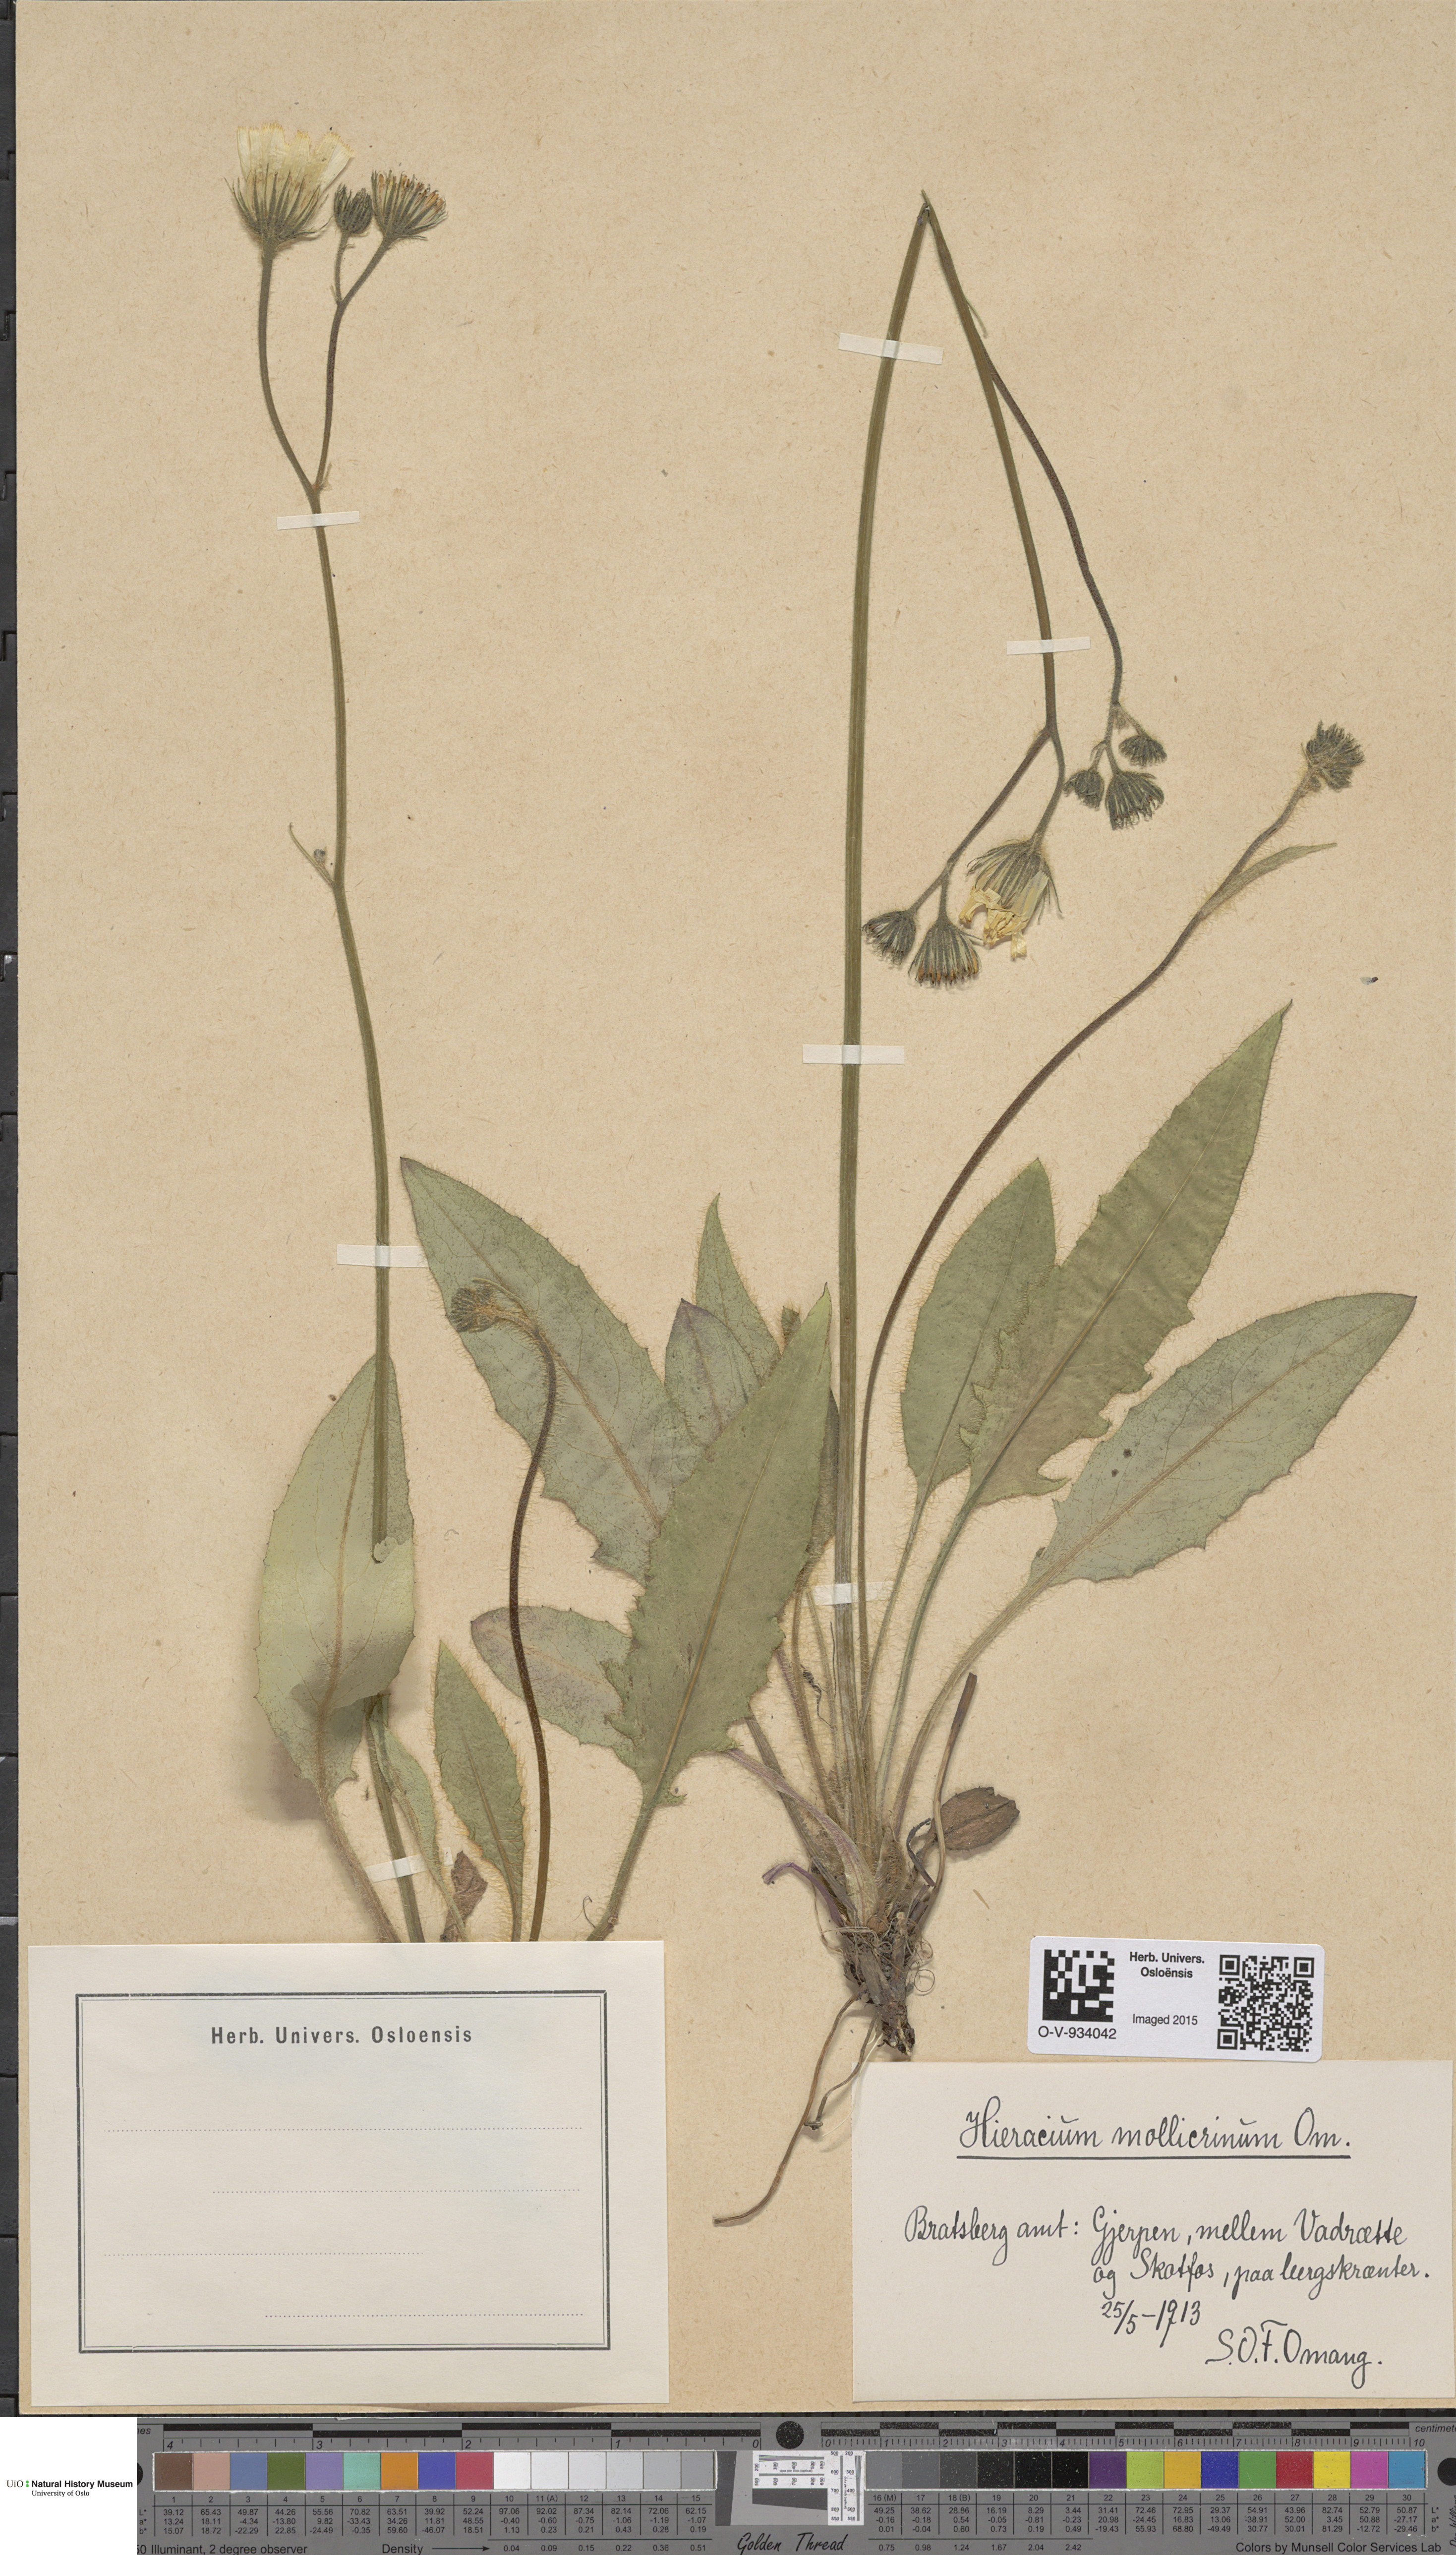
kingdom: Plantae
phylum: Tracheophyta
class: Magnoliopsida
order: Asterales
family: Asteraceae
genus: Hieracium
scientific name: Hieracium schmidtii
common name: Schmidt's hawkweed
